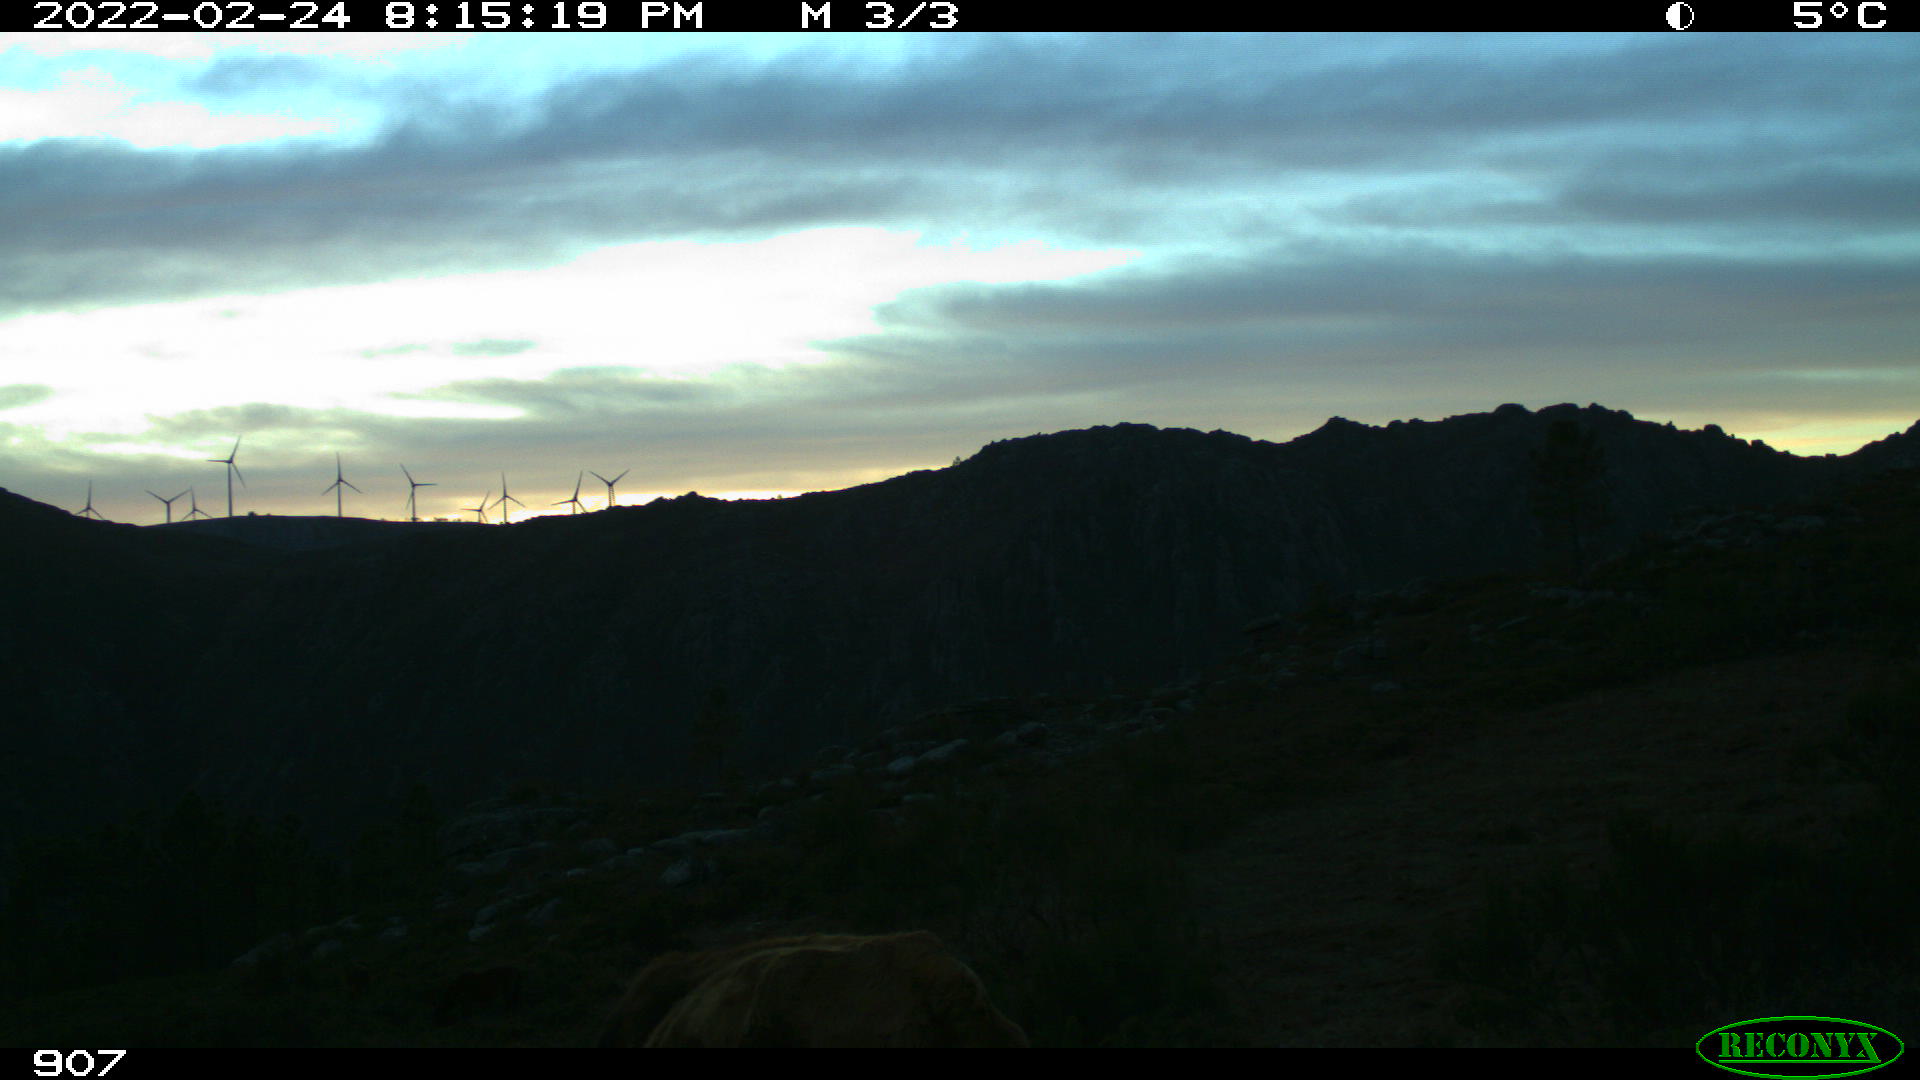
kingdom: Animalia
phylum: Chordata
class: Mammalia
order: Artiodactyla
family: Bovidae
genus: Bos
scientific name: Bos taurus
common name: Domesticated cattle
